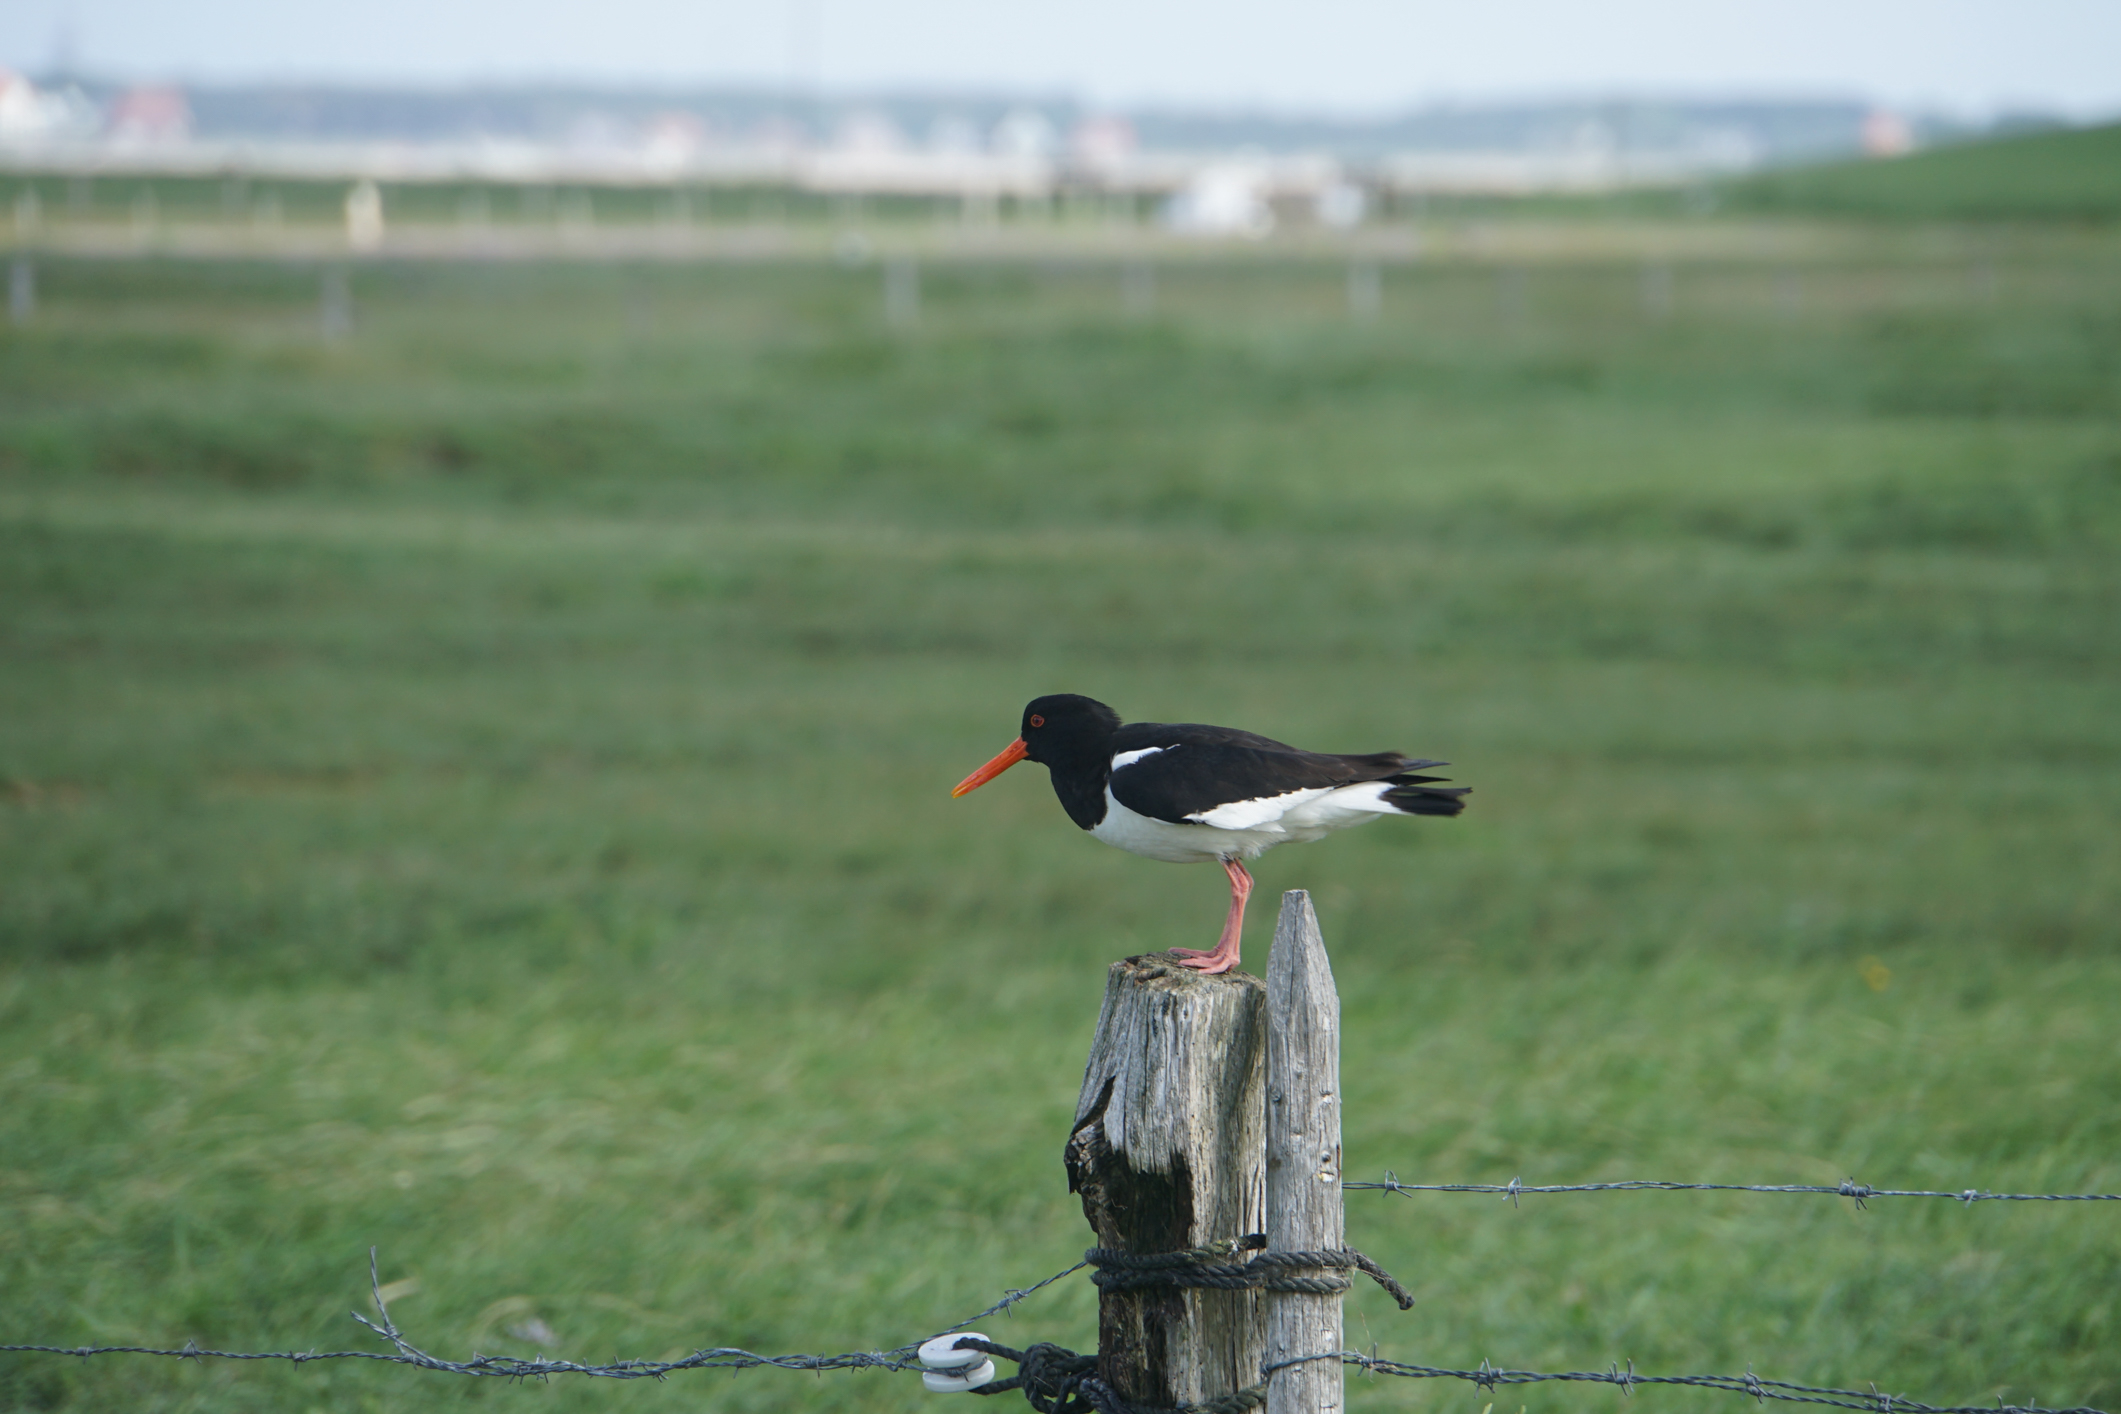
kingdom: Animalia
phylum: Chordata
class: Aves
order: Charadriiformes
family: Haematopodidae
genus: Haematopus
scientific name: Haematopus ostralegus
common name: Eurasian oystercatcher
